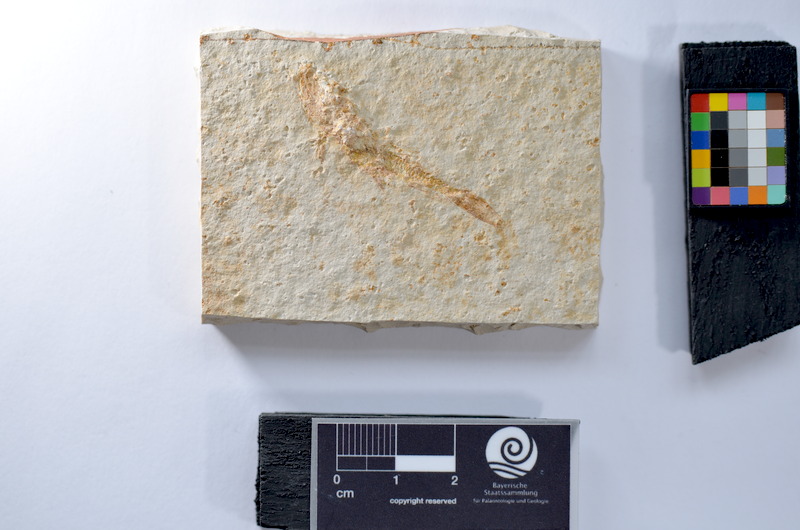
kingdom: Animalia
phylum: Chordata
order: Salmoniformes
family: Orthogonikleithridae
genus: Leptolepides
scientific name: Leptolepides sprattiformis
